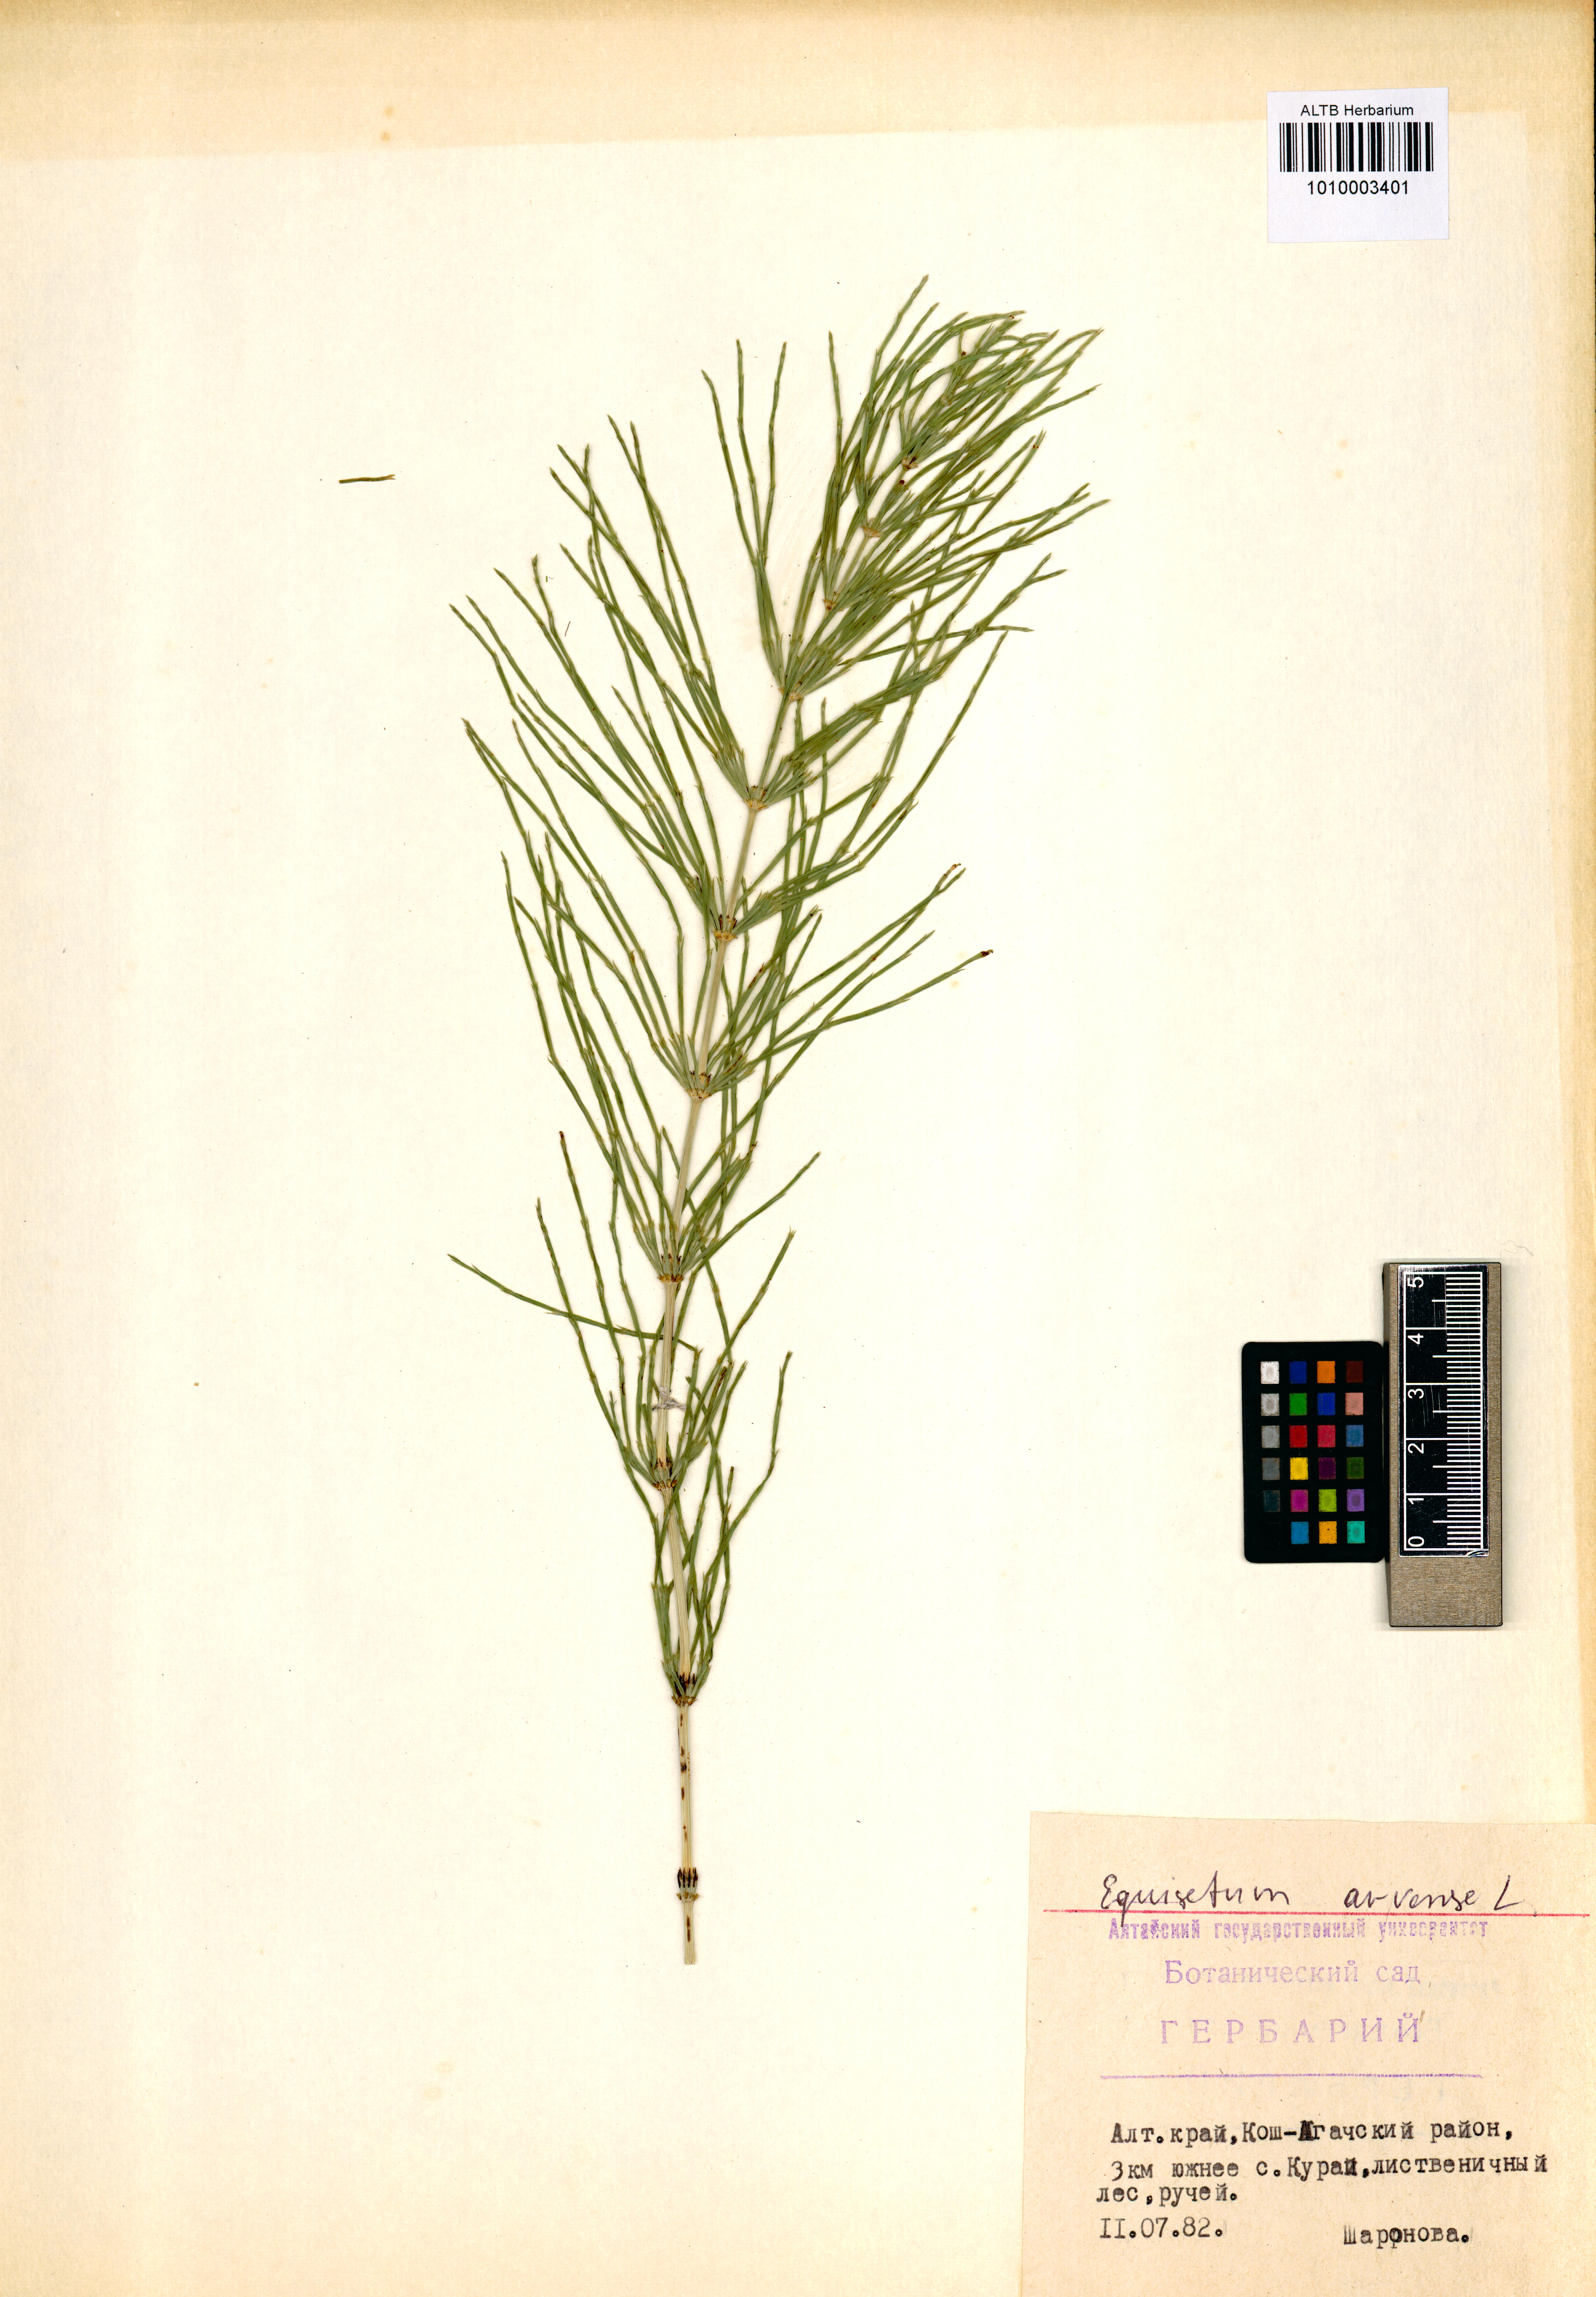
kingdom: Plantae
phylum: Tracheophyta
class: Polypodiopsida
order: Equisetales
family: Equisetaceae
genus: Equisetum
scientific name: Equisetum arvense
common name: Field horsetail
